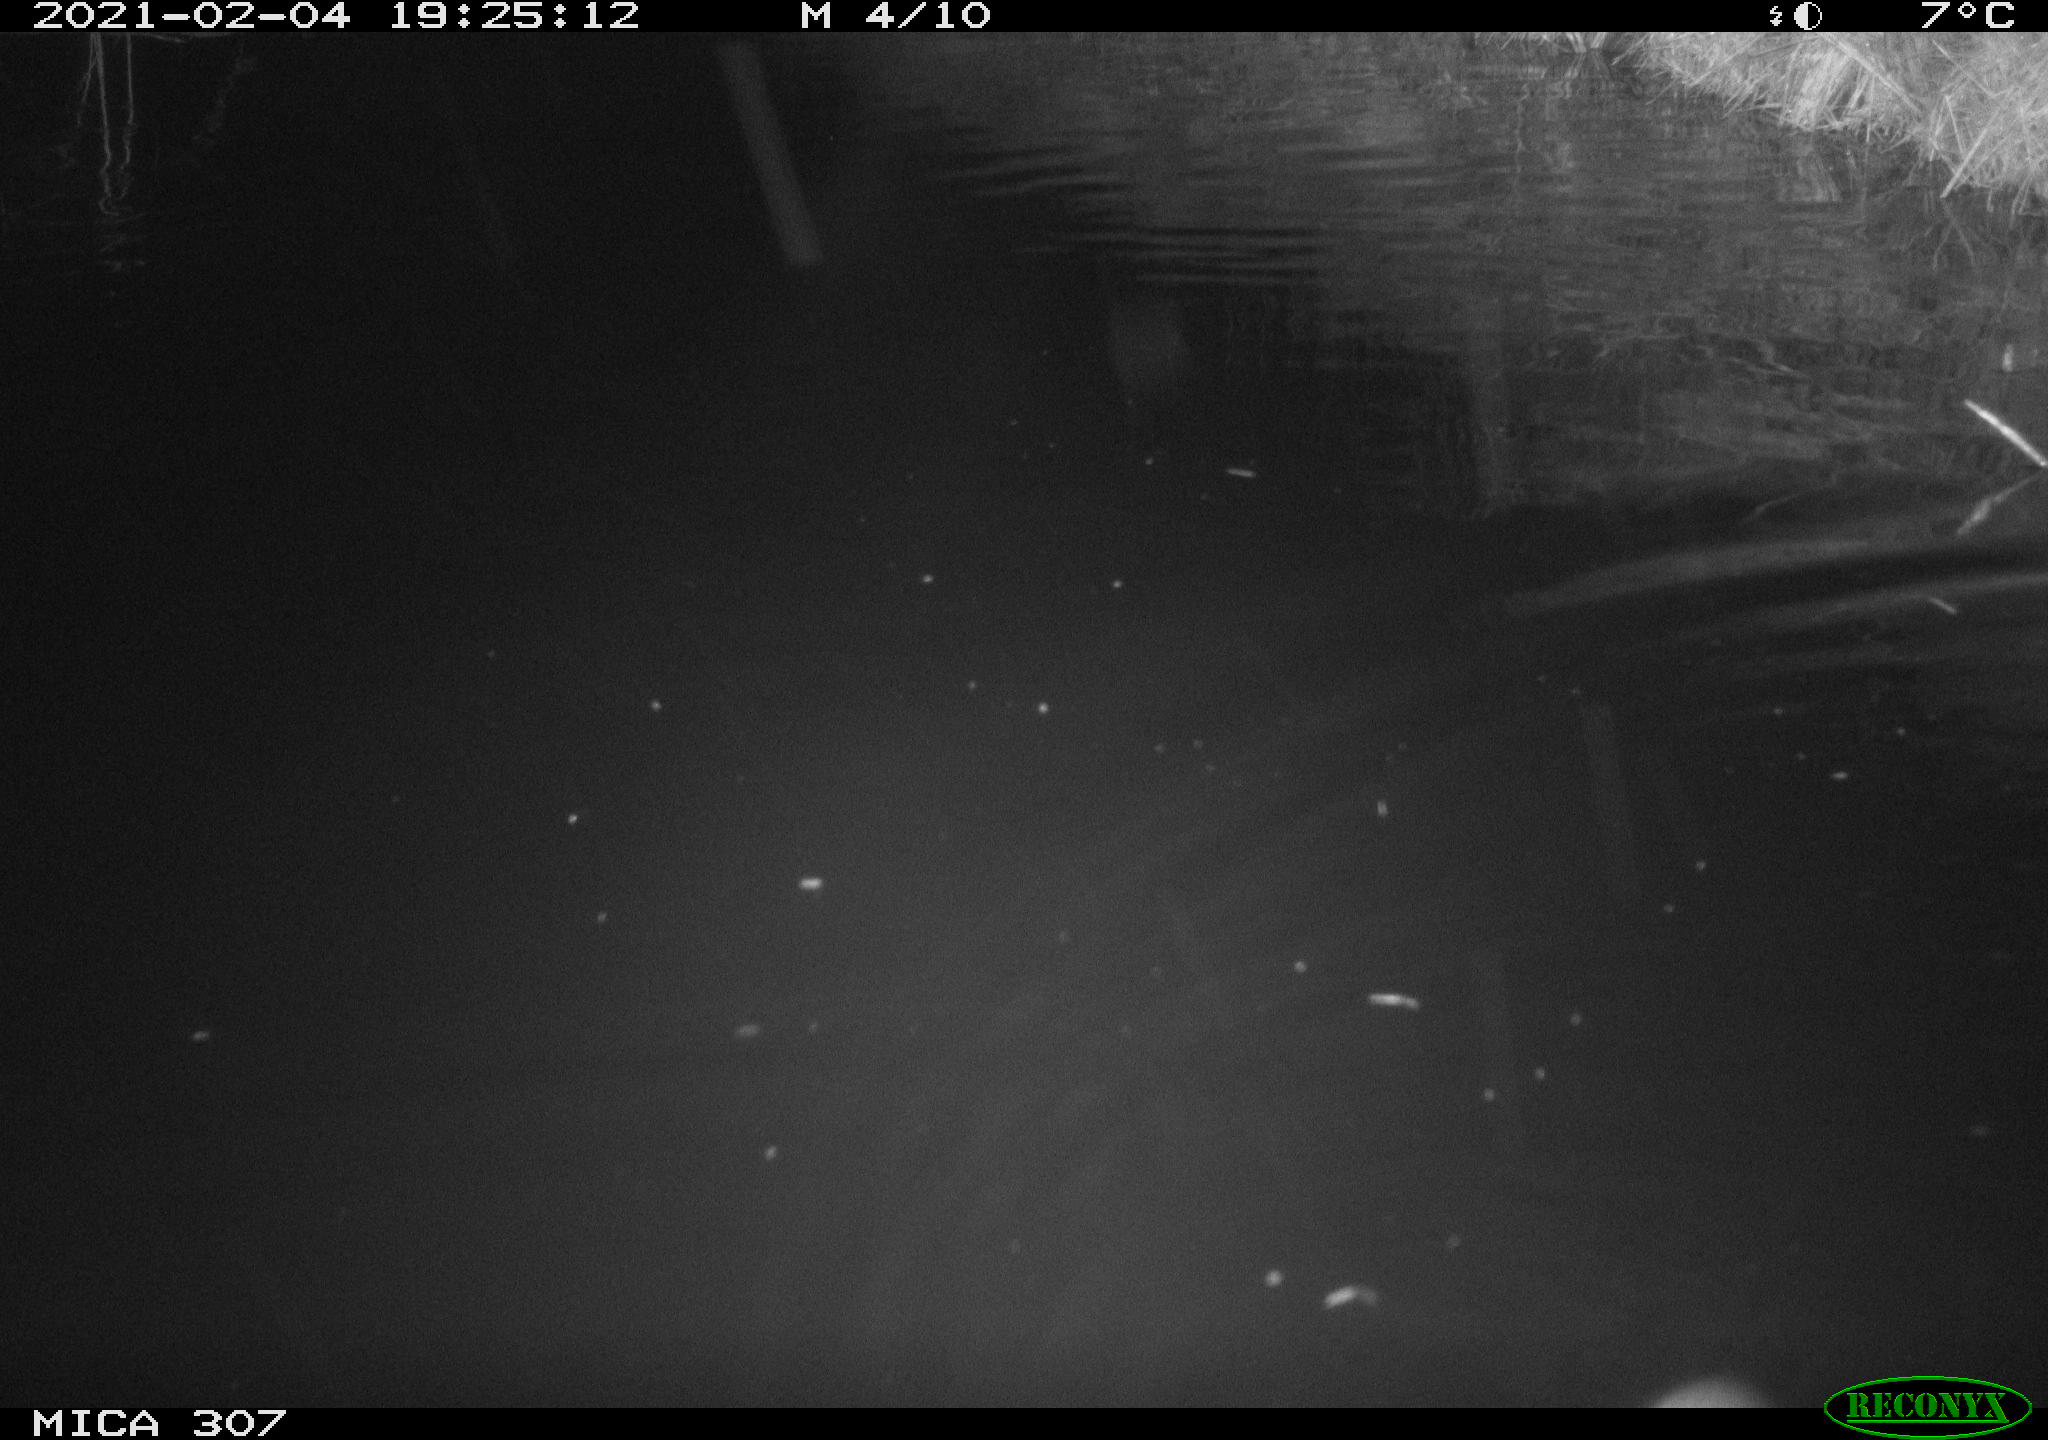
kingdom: Animalia
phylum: Chordata
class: Mammalia
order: Rodentia
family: Muridae
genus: Rattus
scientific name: Rattus norvegicus
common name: Brown rat
